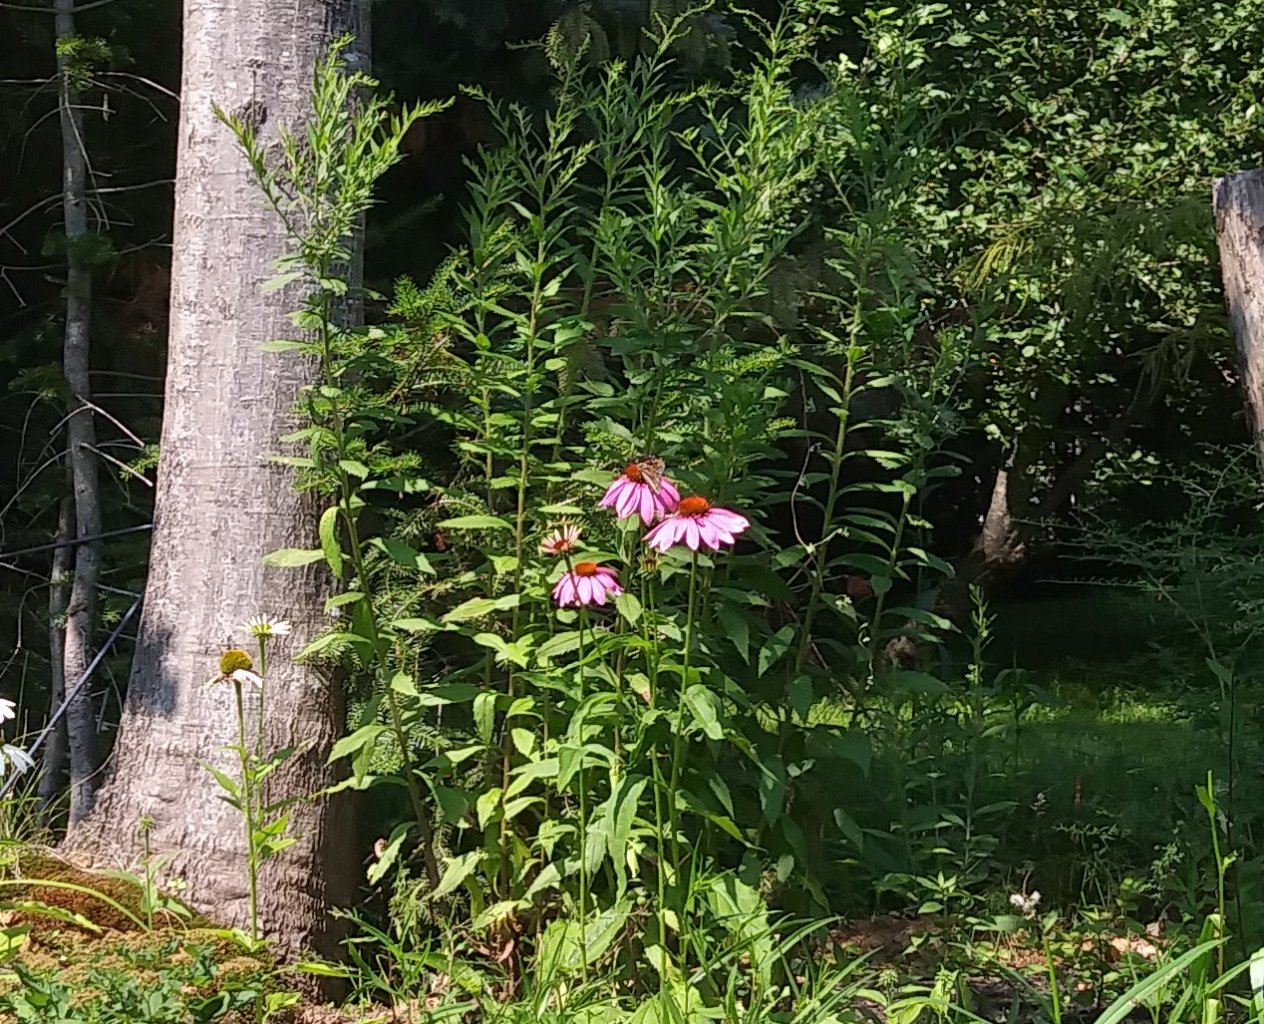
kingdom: Animalia
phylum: Arthropoda
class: Insecta
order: Lepidoptera
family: Nymphalidae
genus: Danaus
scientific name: Danaus plexippus
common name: Monarch
